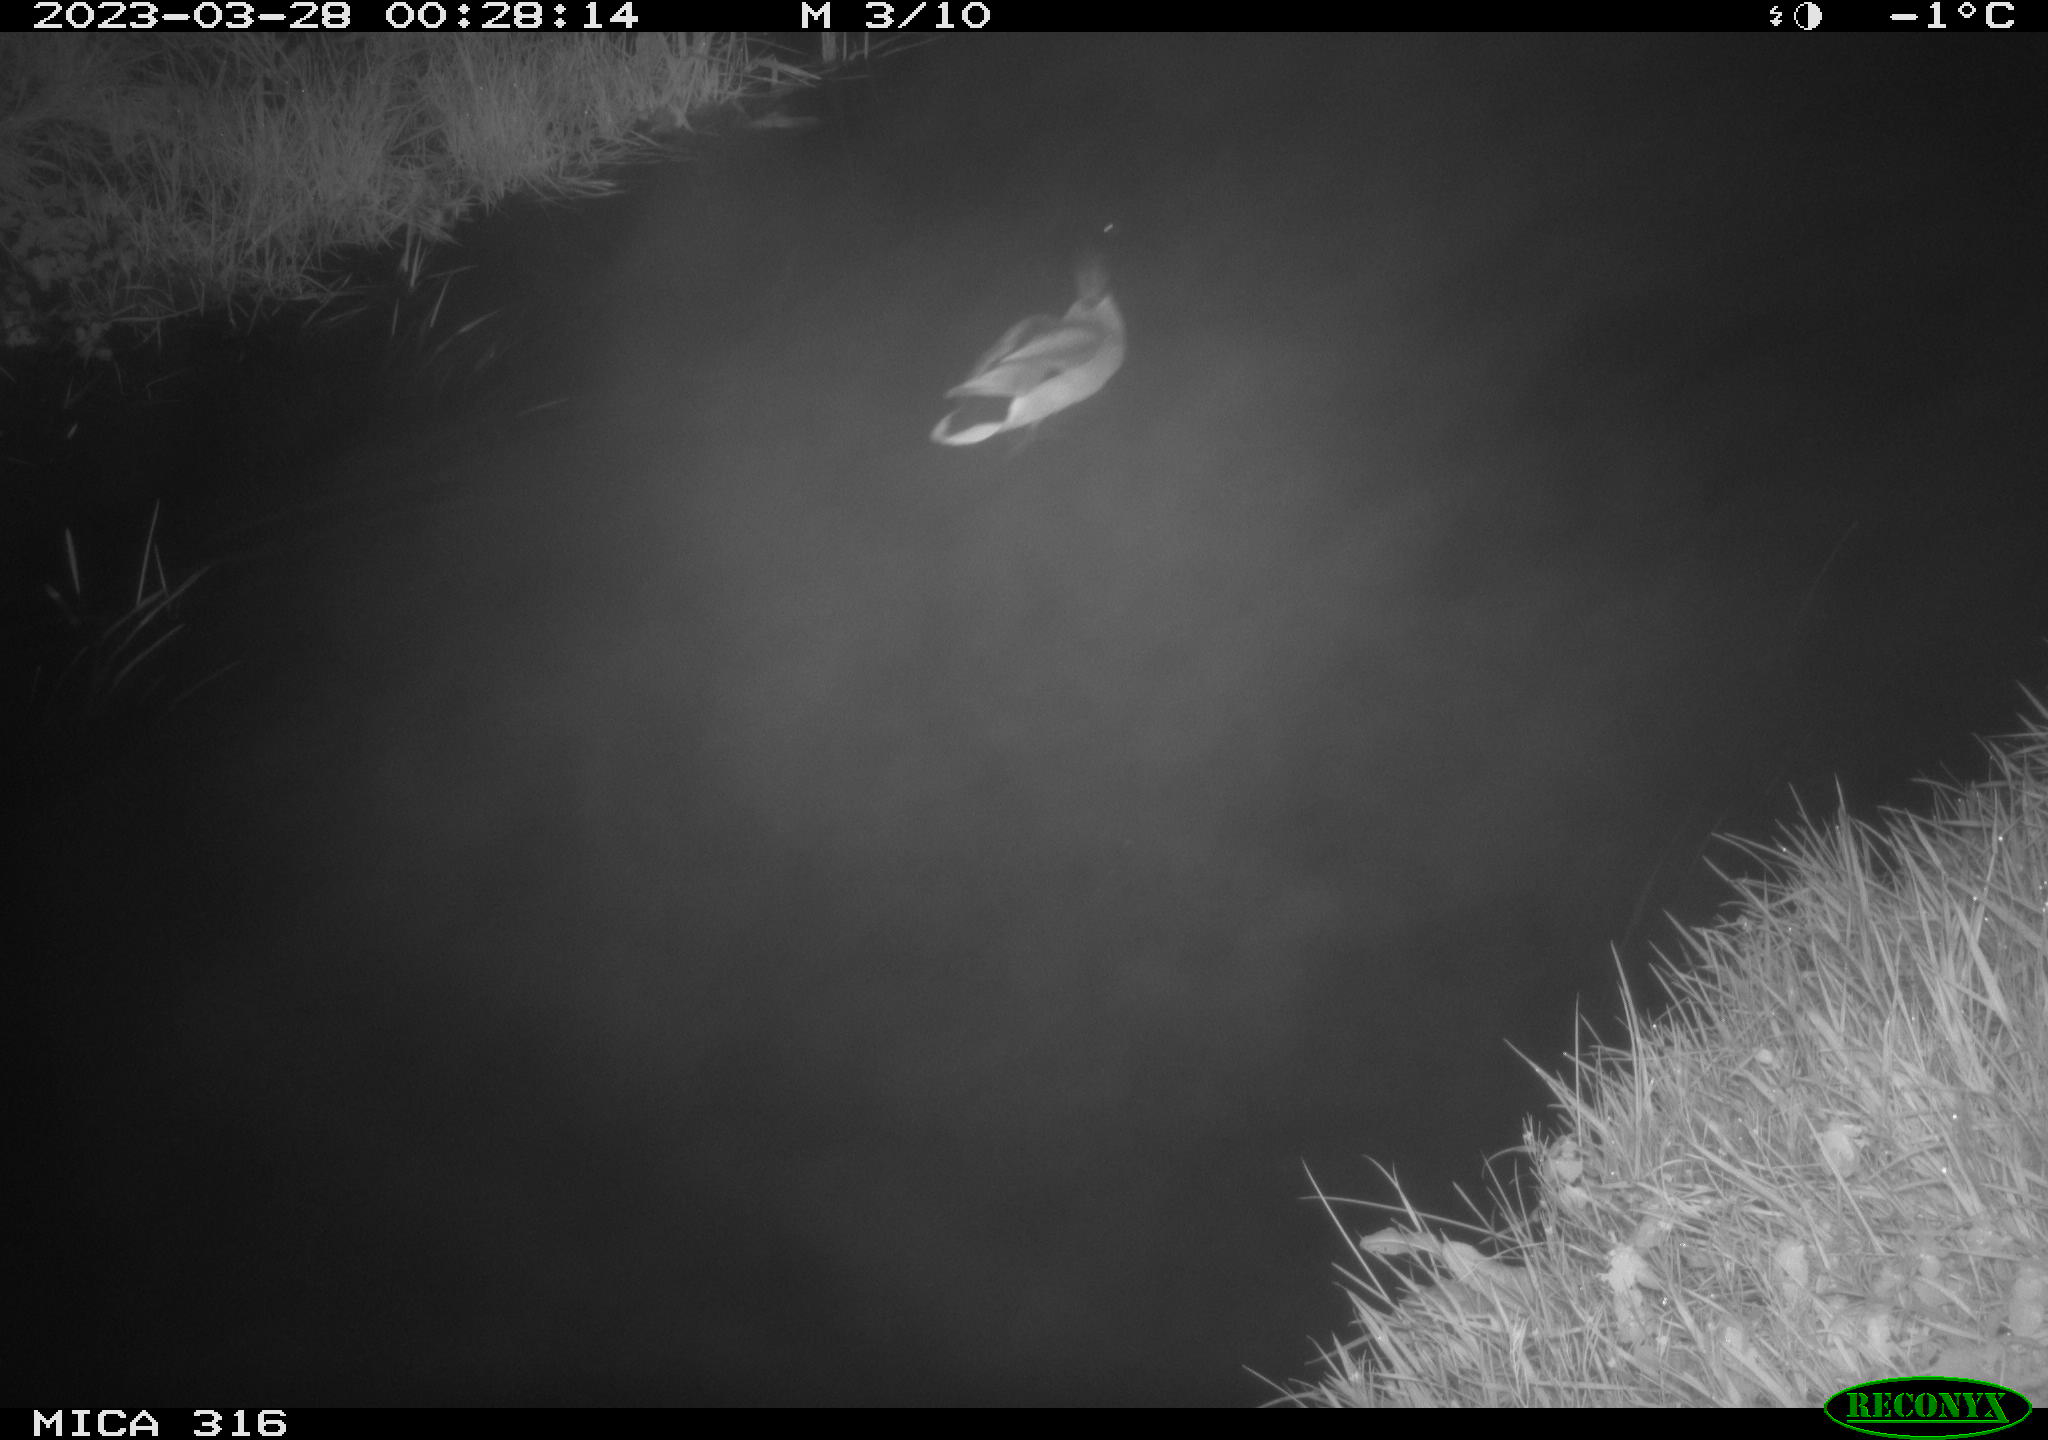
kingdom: Animalia
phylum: Chordata
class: Aves
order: Anseriformes
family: Anatidae
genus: Anas
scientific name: Anas
